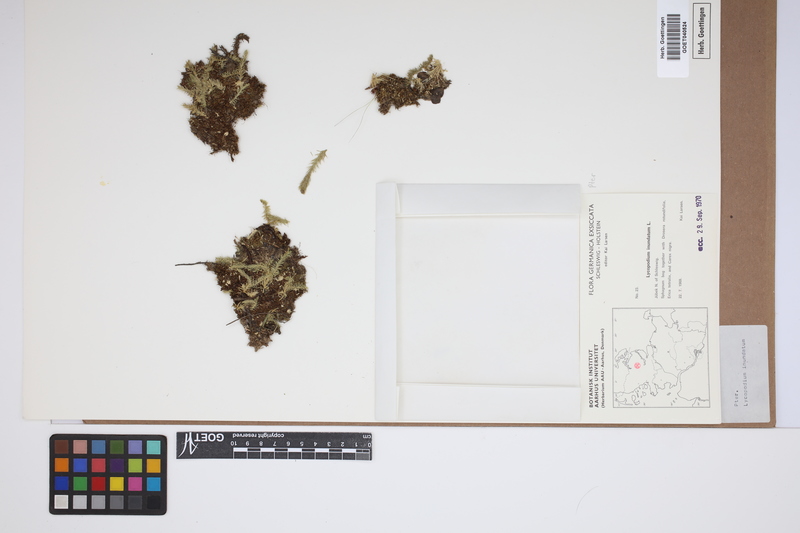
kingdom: Plantae
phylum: Tracheophyta
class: Lycopodiopsida
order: Lycopodiales
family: Lycopodiaceae
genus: Lycopodiella
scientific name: Lycopodiella inundata
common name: Marsh clubmoss
